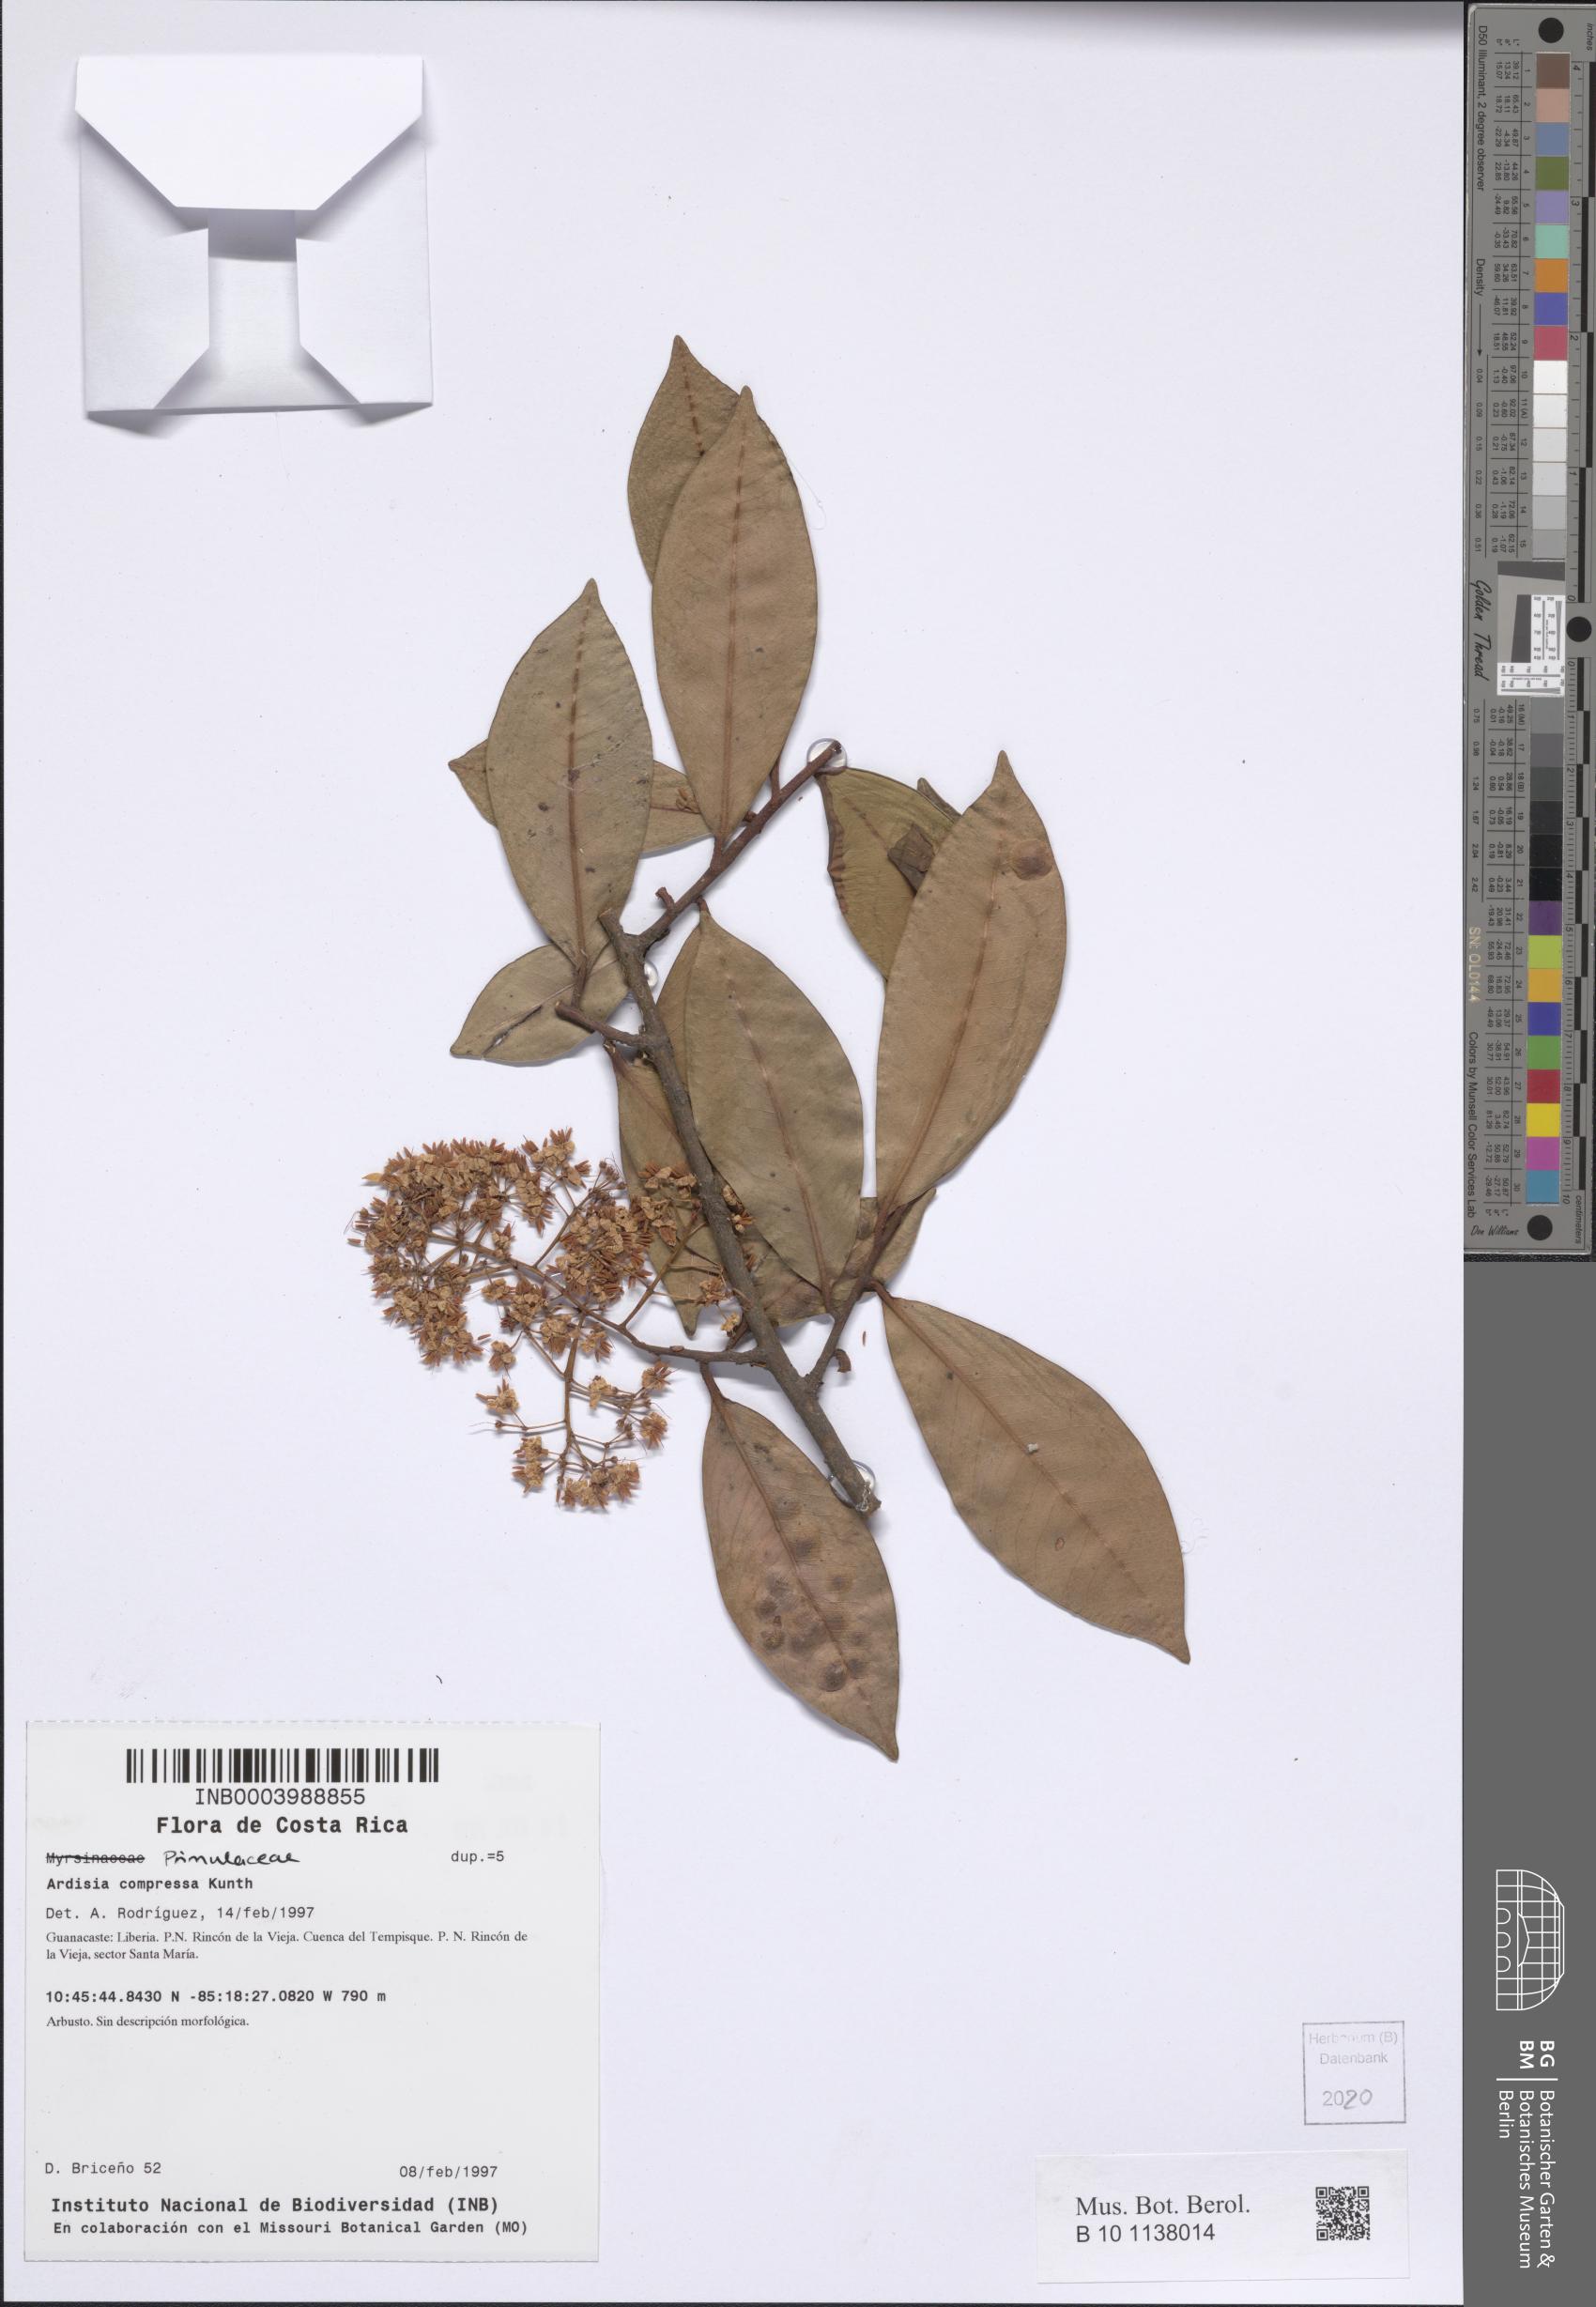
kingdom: Plantae
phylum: Tracheophyta
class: Magnoliopsida
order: Ericales
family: Primulaceae
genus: Ardisia
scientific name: Ardisia compressa
